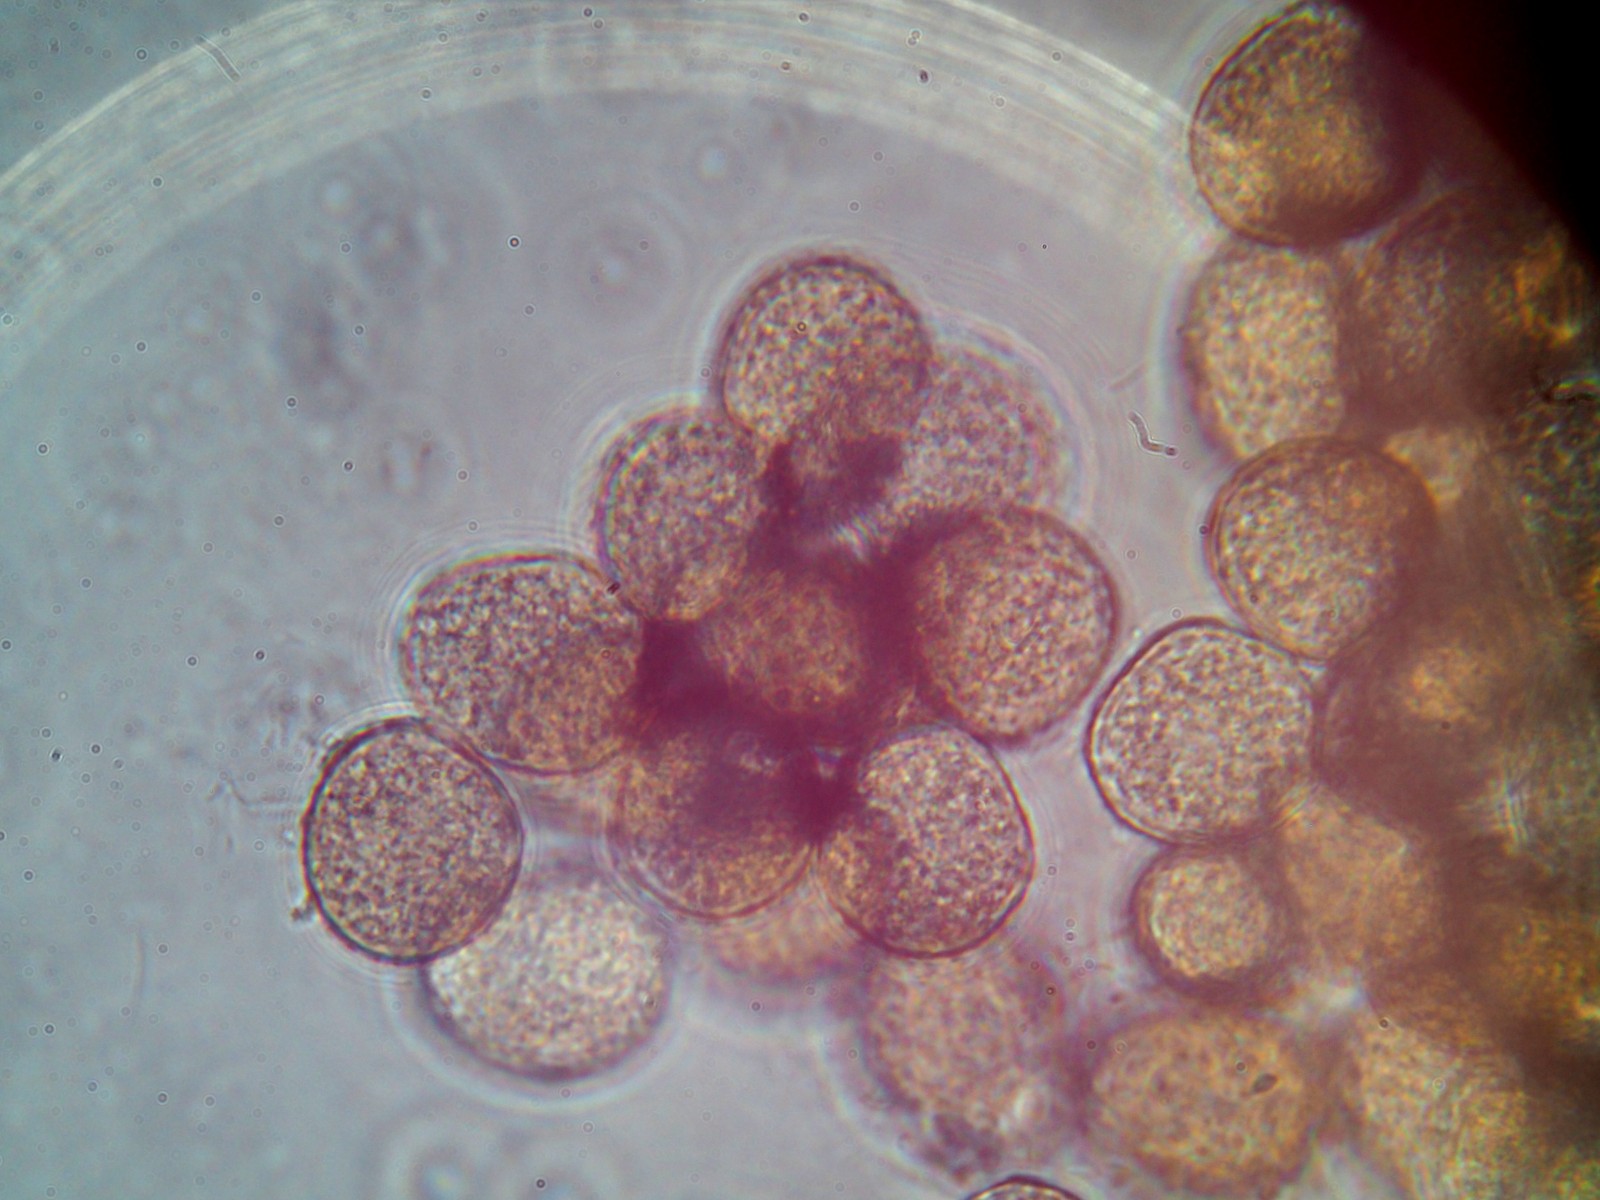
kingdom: Fungi
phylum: Basidiomycota
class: Pucciniomycetes
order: Pucciniales
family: Pucciniaceae
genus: Puccinia
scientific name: Puccinia menthae
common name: Mint rust
